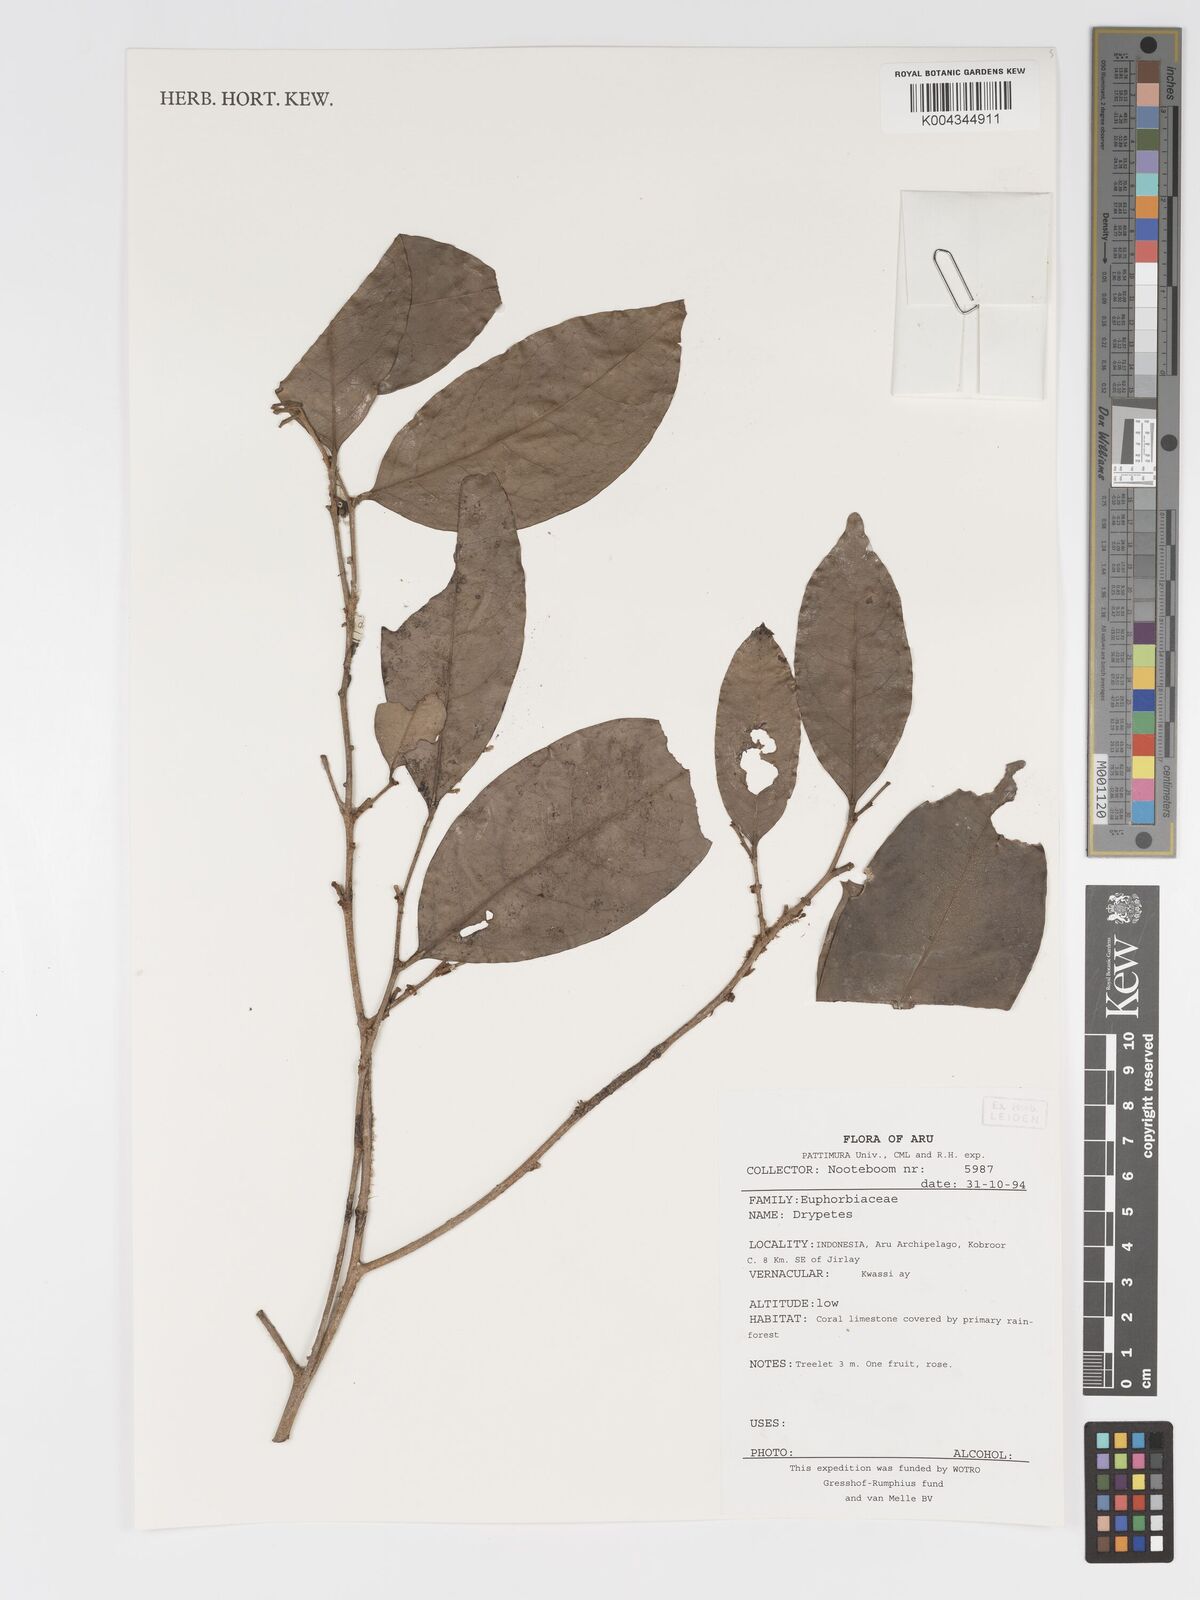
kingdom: Plantae
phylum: Tracheophyta
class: Magnoliopsida
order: Malpighiales
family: Putranjivaceae
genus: Drypetes
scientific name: Drypetes
